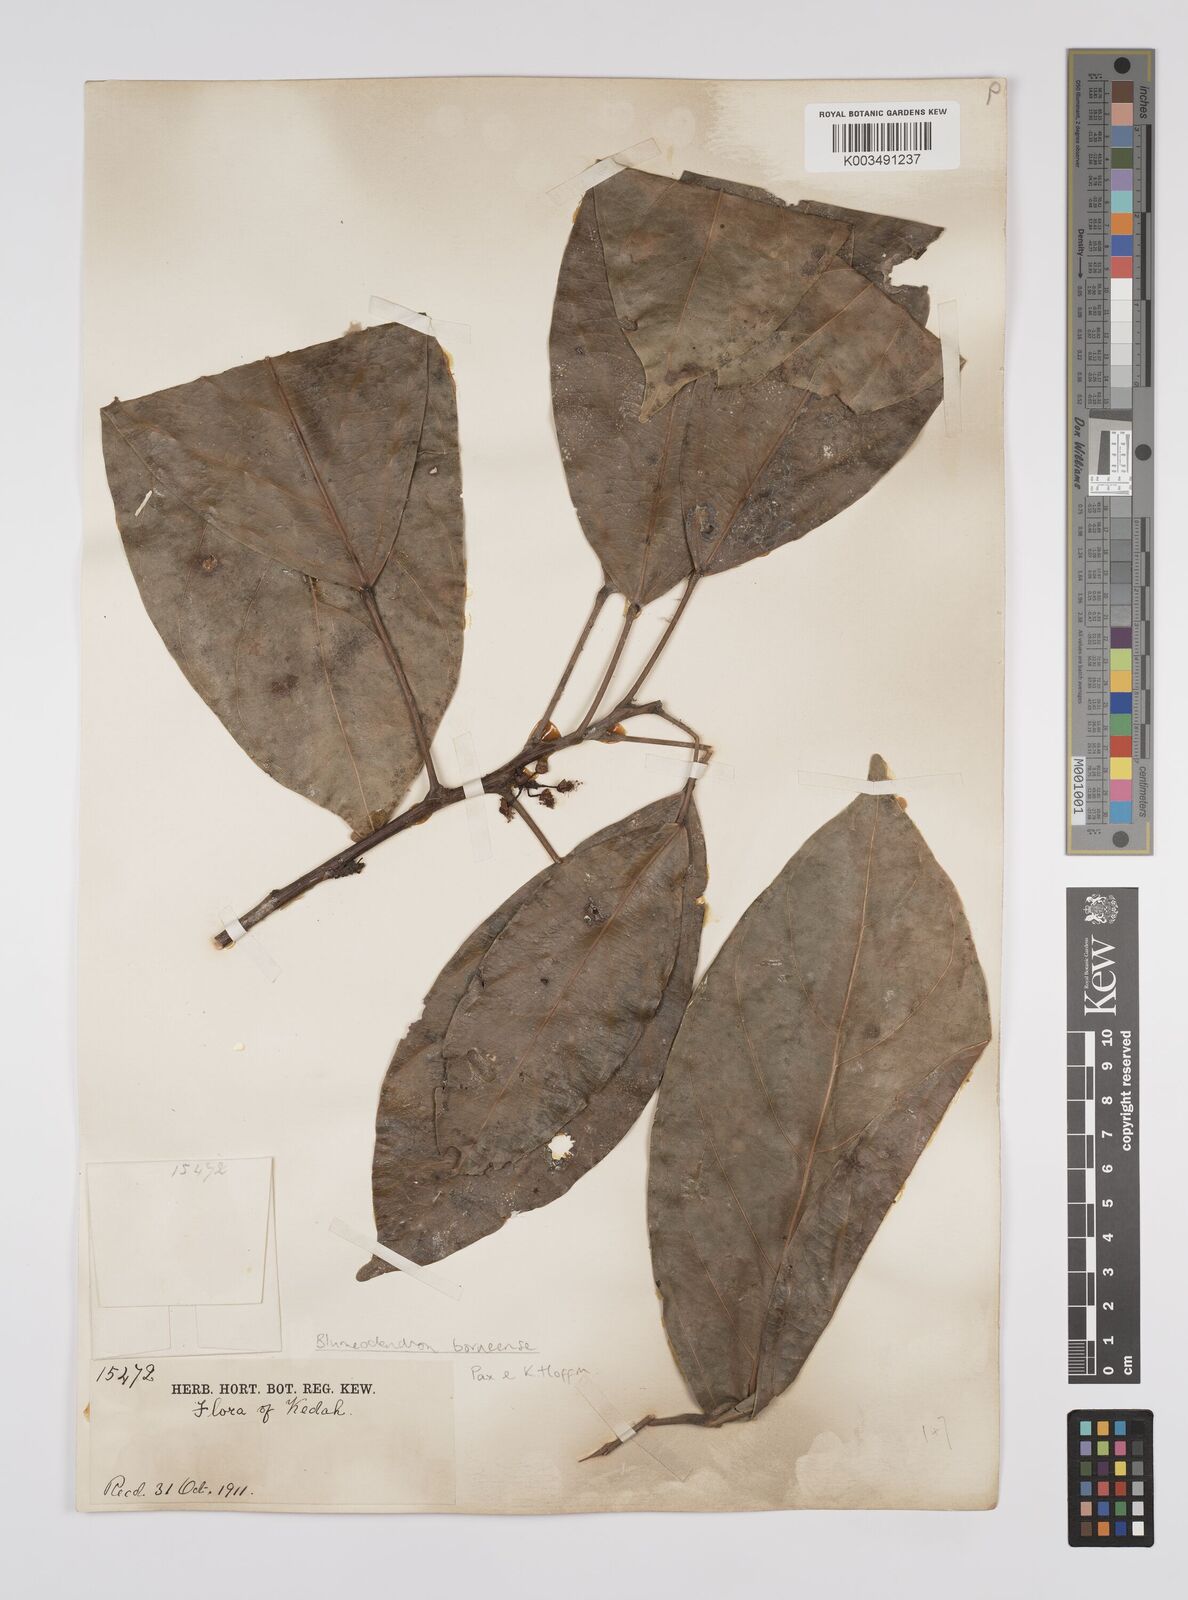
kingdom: Plantae
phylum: Tracheophyta
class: Magnoliopsida
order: Malpighiales
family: Euphorbiaceae
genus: Blumeodendron
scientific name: Blumeodendron borneense
